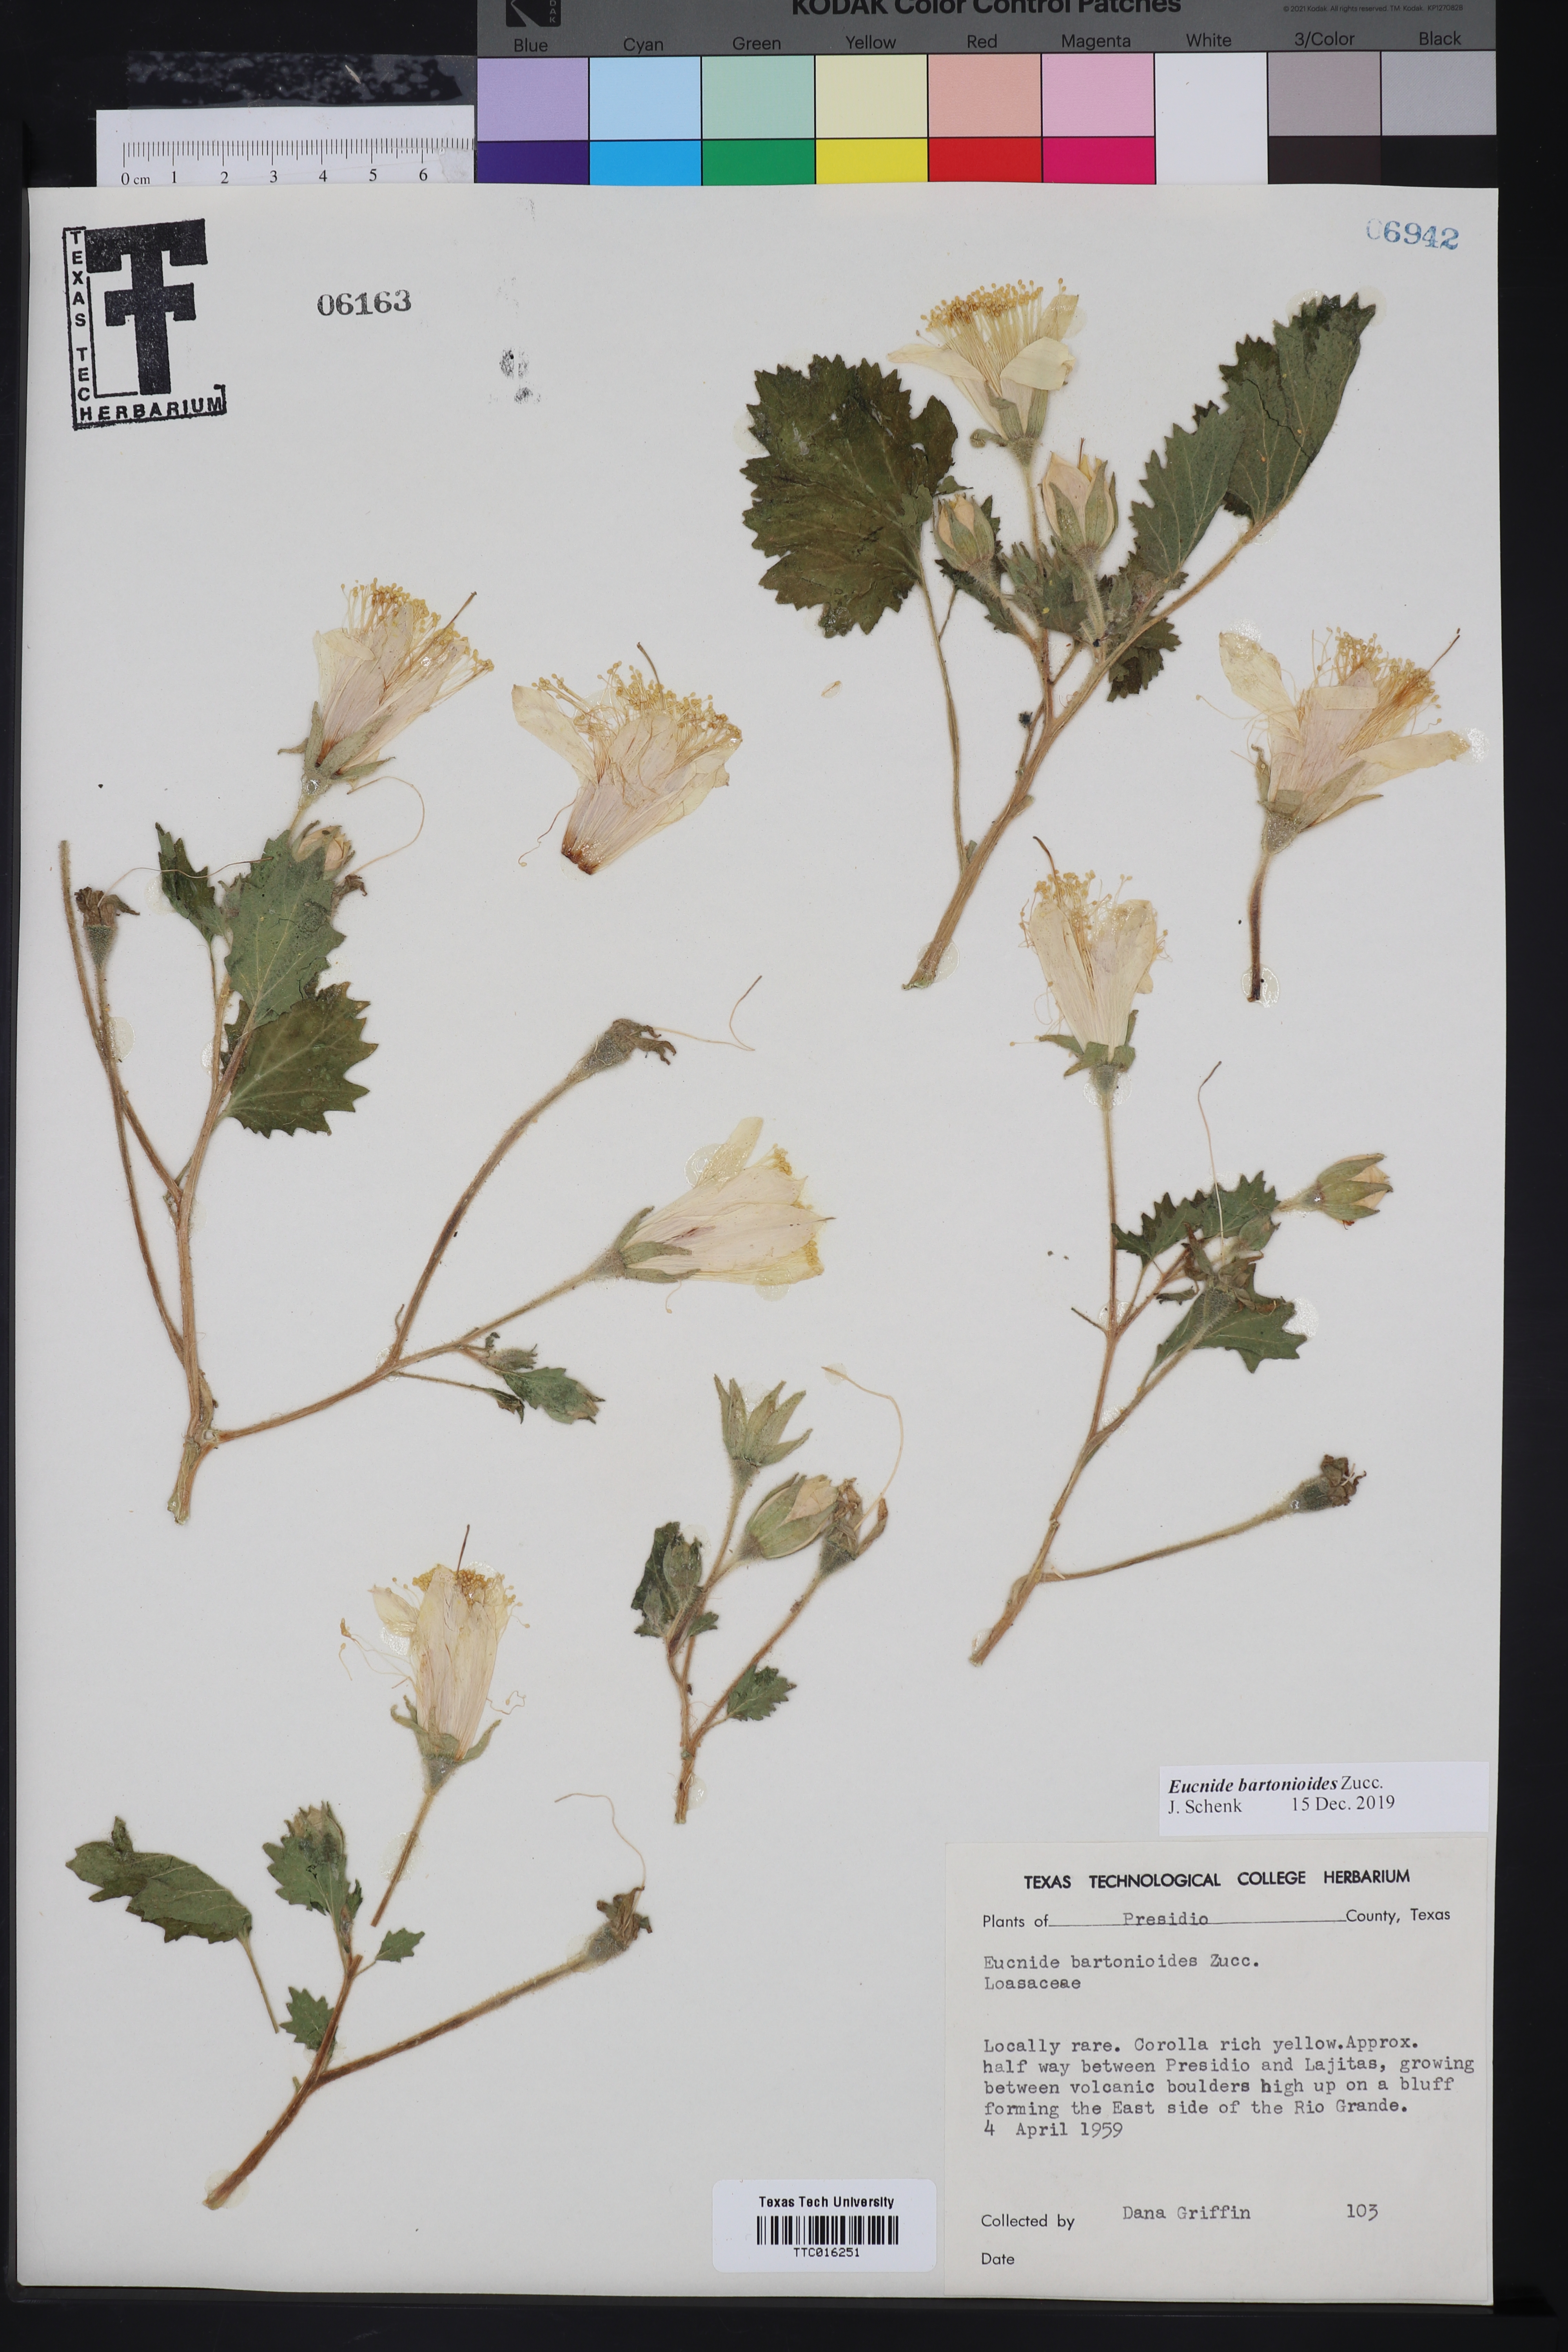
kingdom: Plantae
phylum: Tracheophyta
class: Magnoliopsida
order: Cornales
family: Loasaceae
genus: Eucnide
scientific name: Eucnide bartonioides
